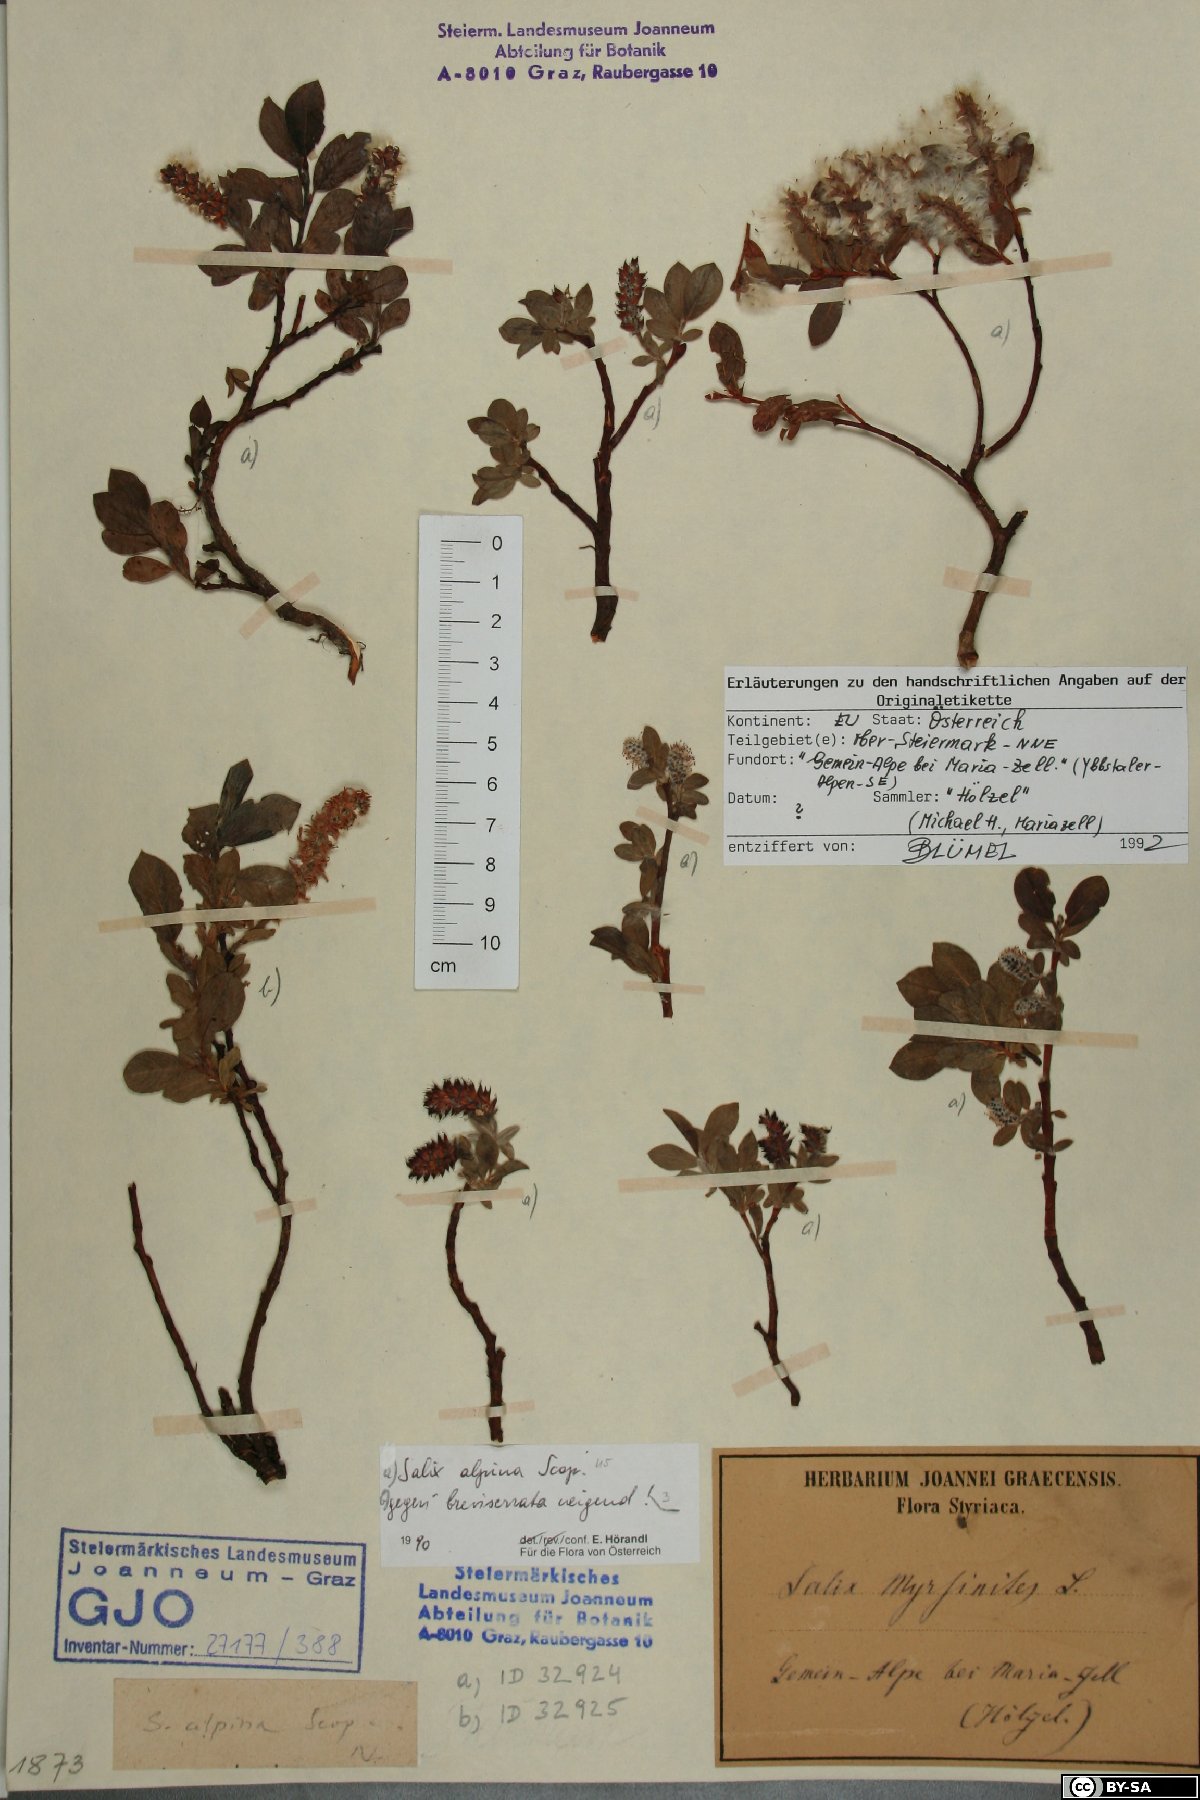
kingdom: Plantae
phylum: Tracheophyta
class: Magnoliopsida
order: Malpighiales
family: Salicaceae
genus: Salix
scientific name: Salix alpina
